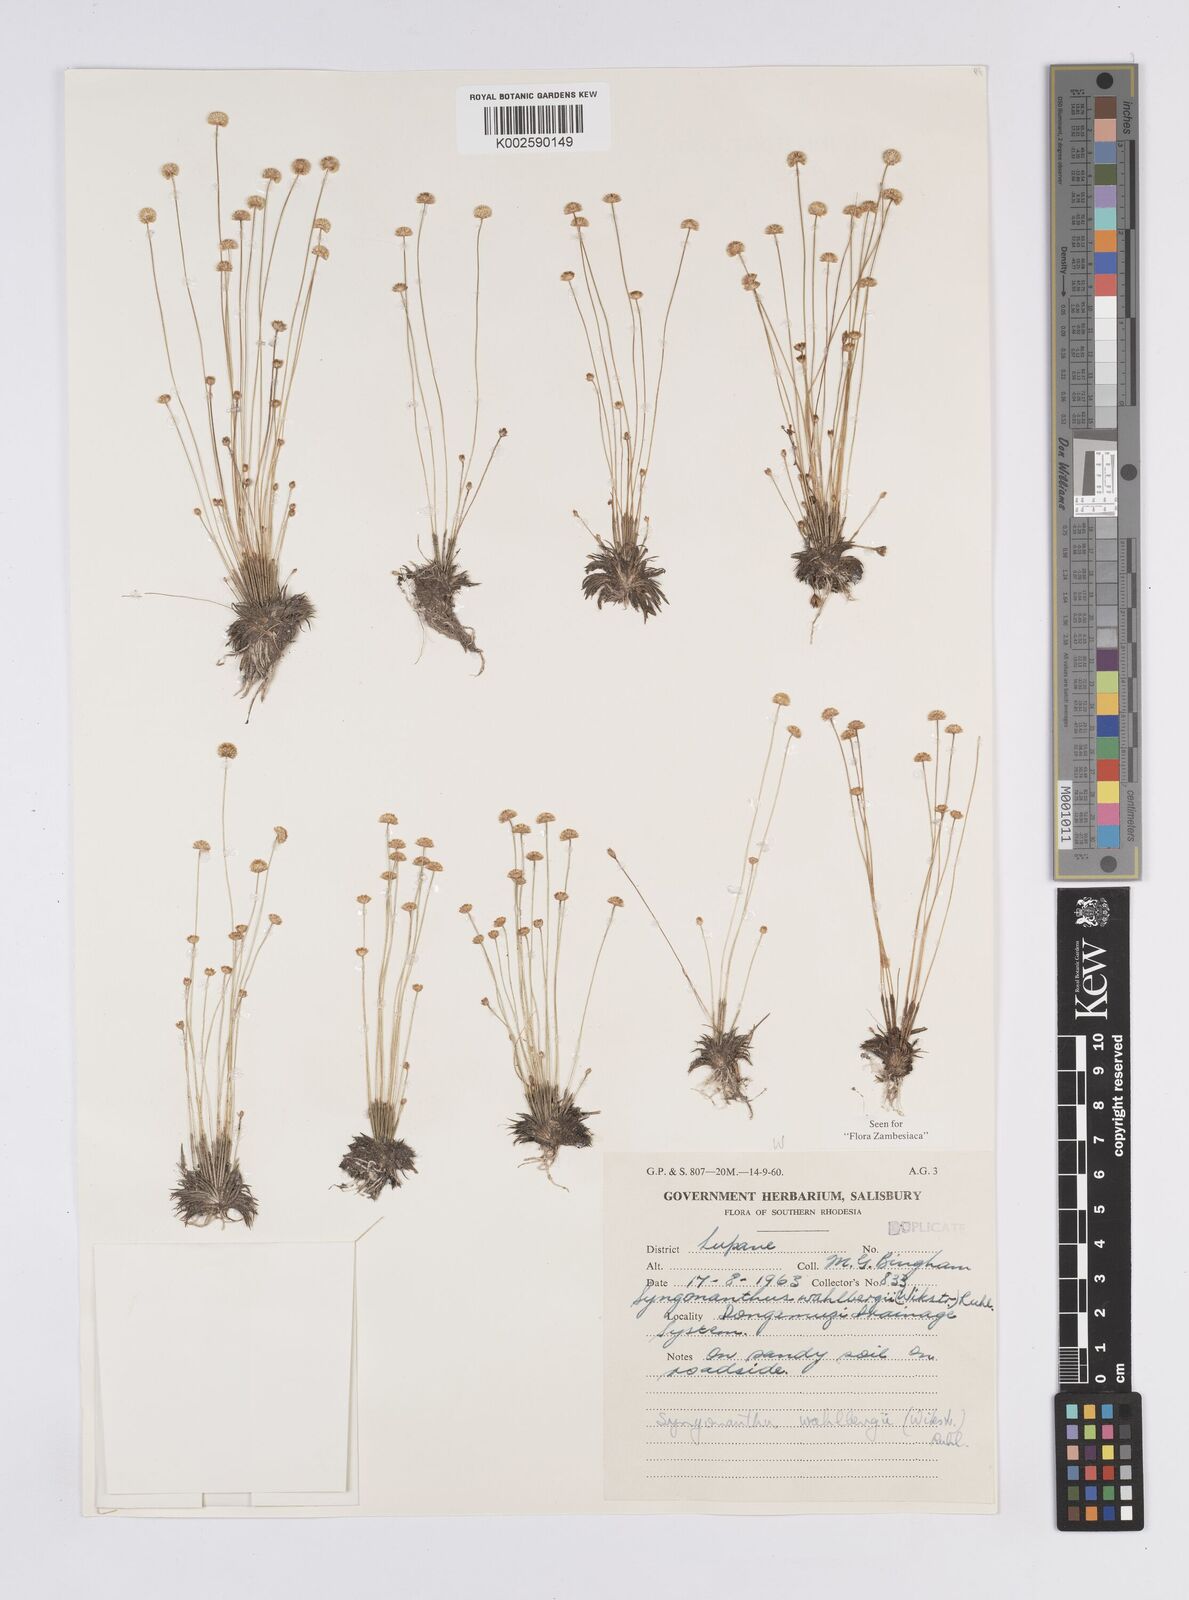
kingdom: Plantae
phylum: Tracheophyta
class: Liliopsida
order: Poales
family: Eriocaulaceae
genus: Syngonanthus
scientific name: Syngonanthus wahlbergii
